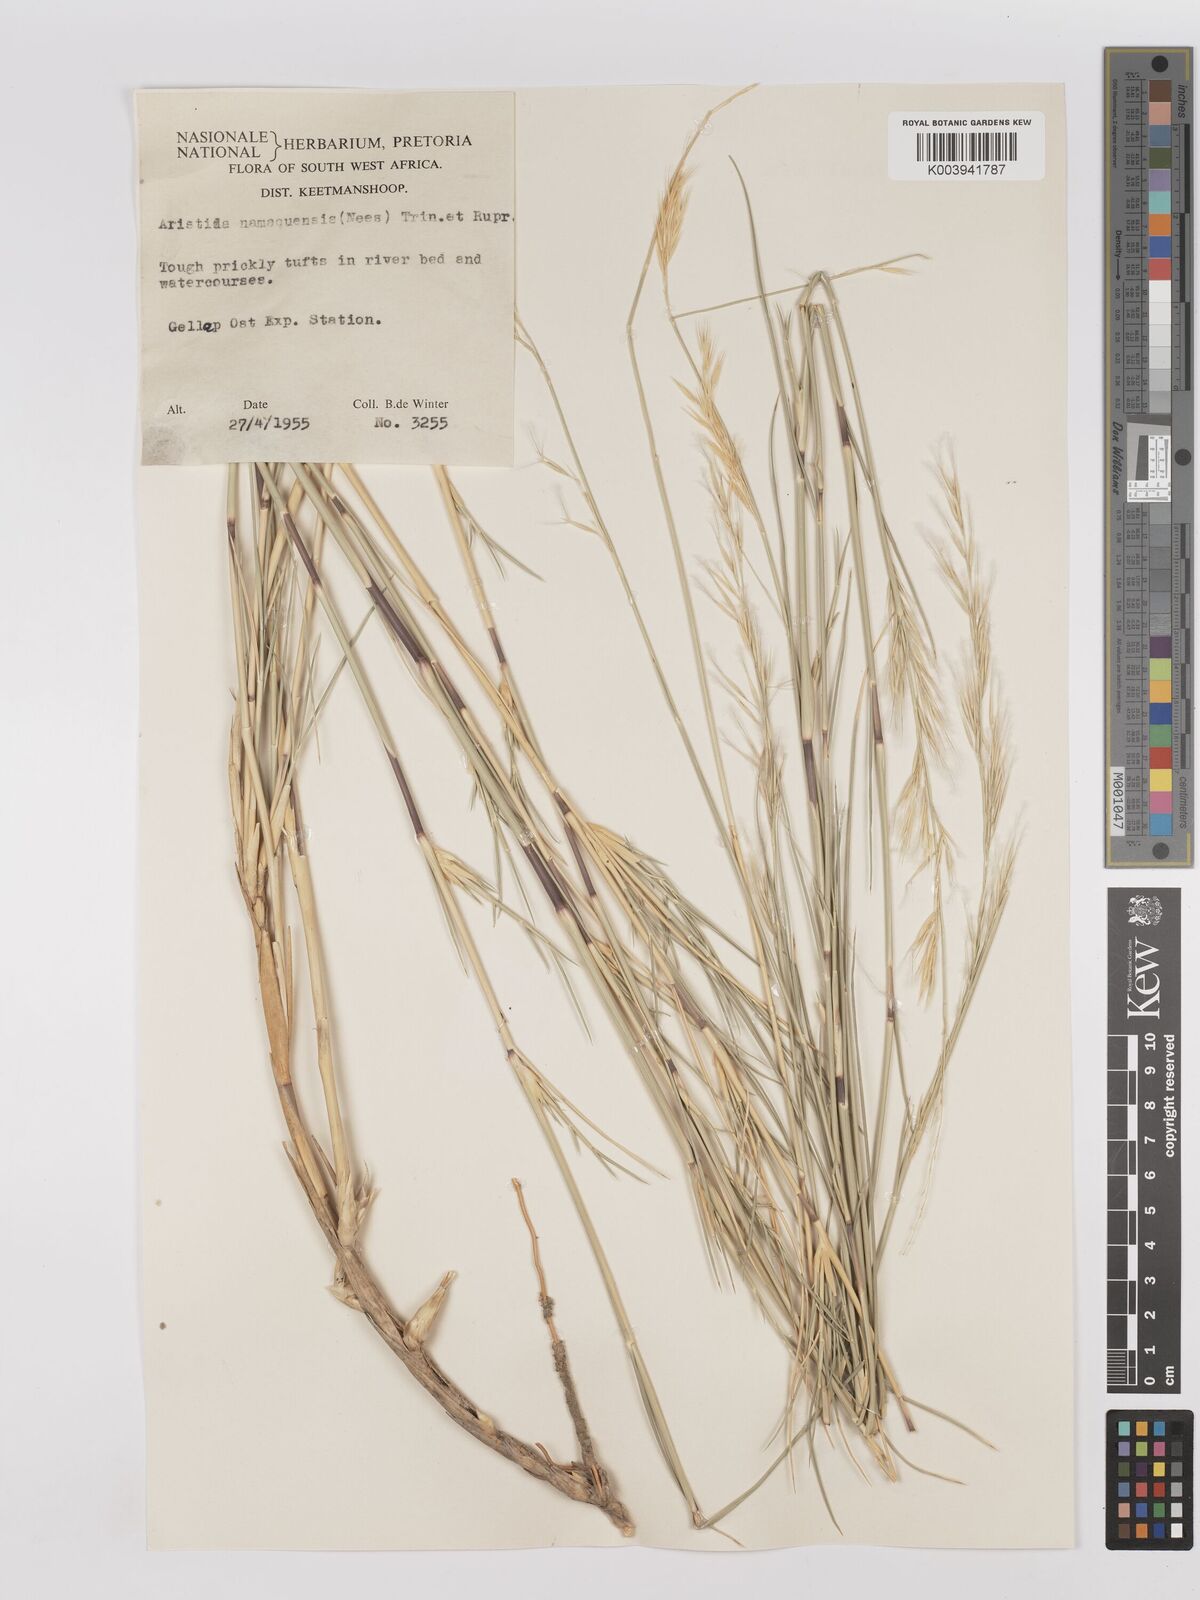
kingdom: Plantae
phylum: Tracheophyta
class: Liliopsida
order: Poales
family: Poaceae
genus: Stipagrostis
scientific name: Stipagrostis namaquensis
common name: River bushman grass
